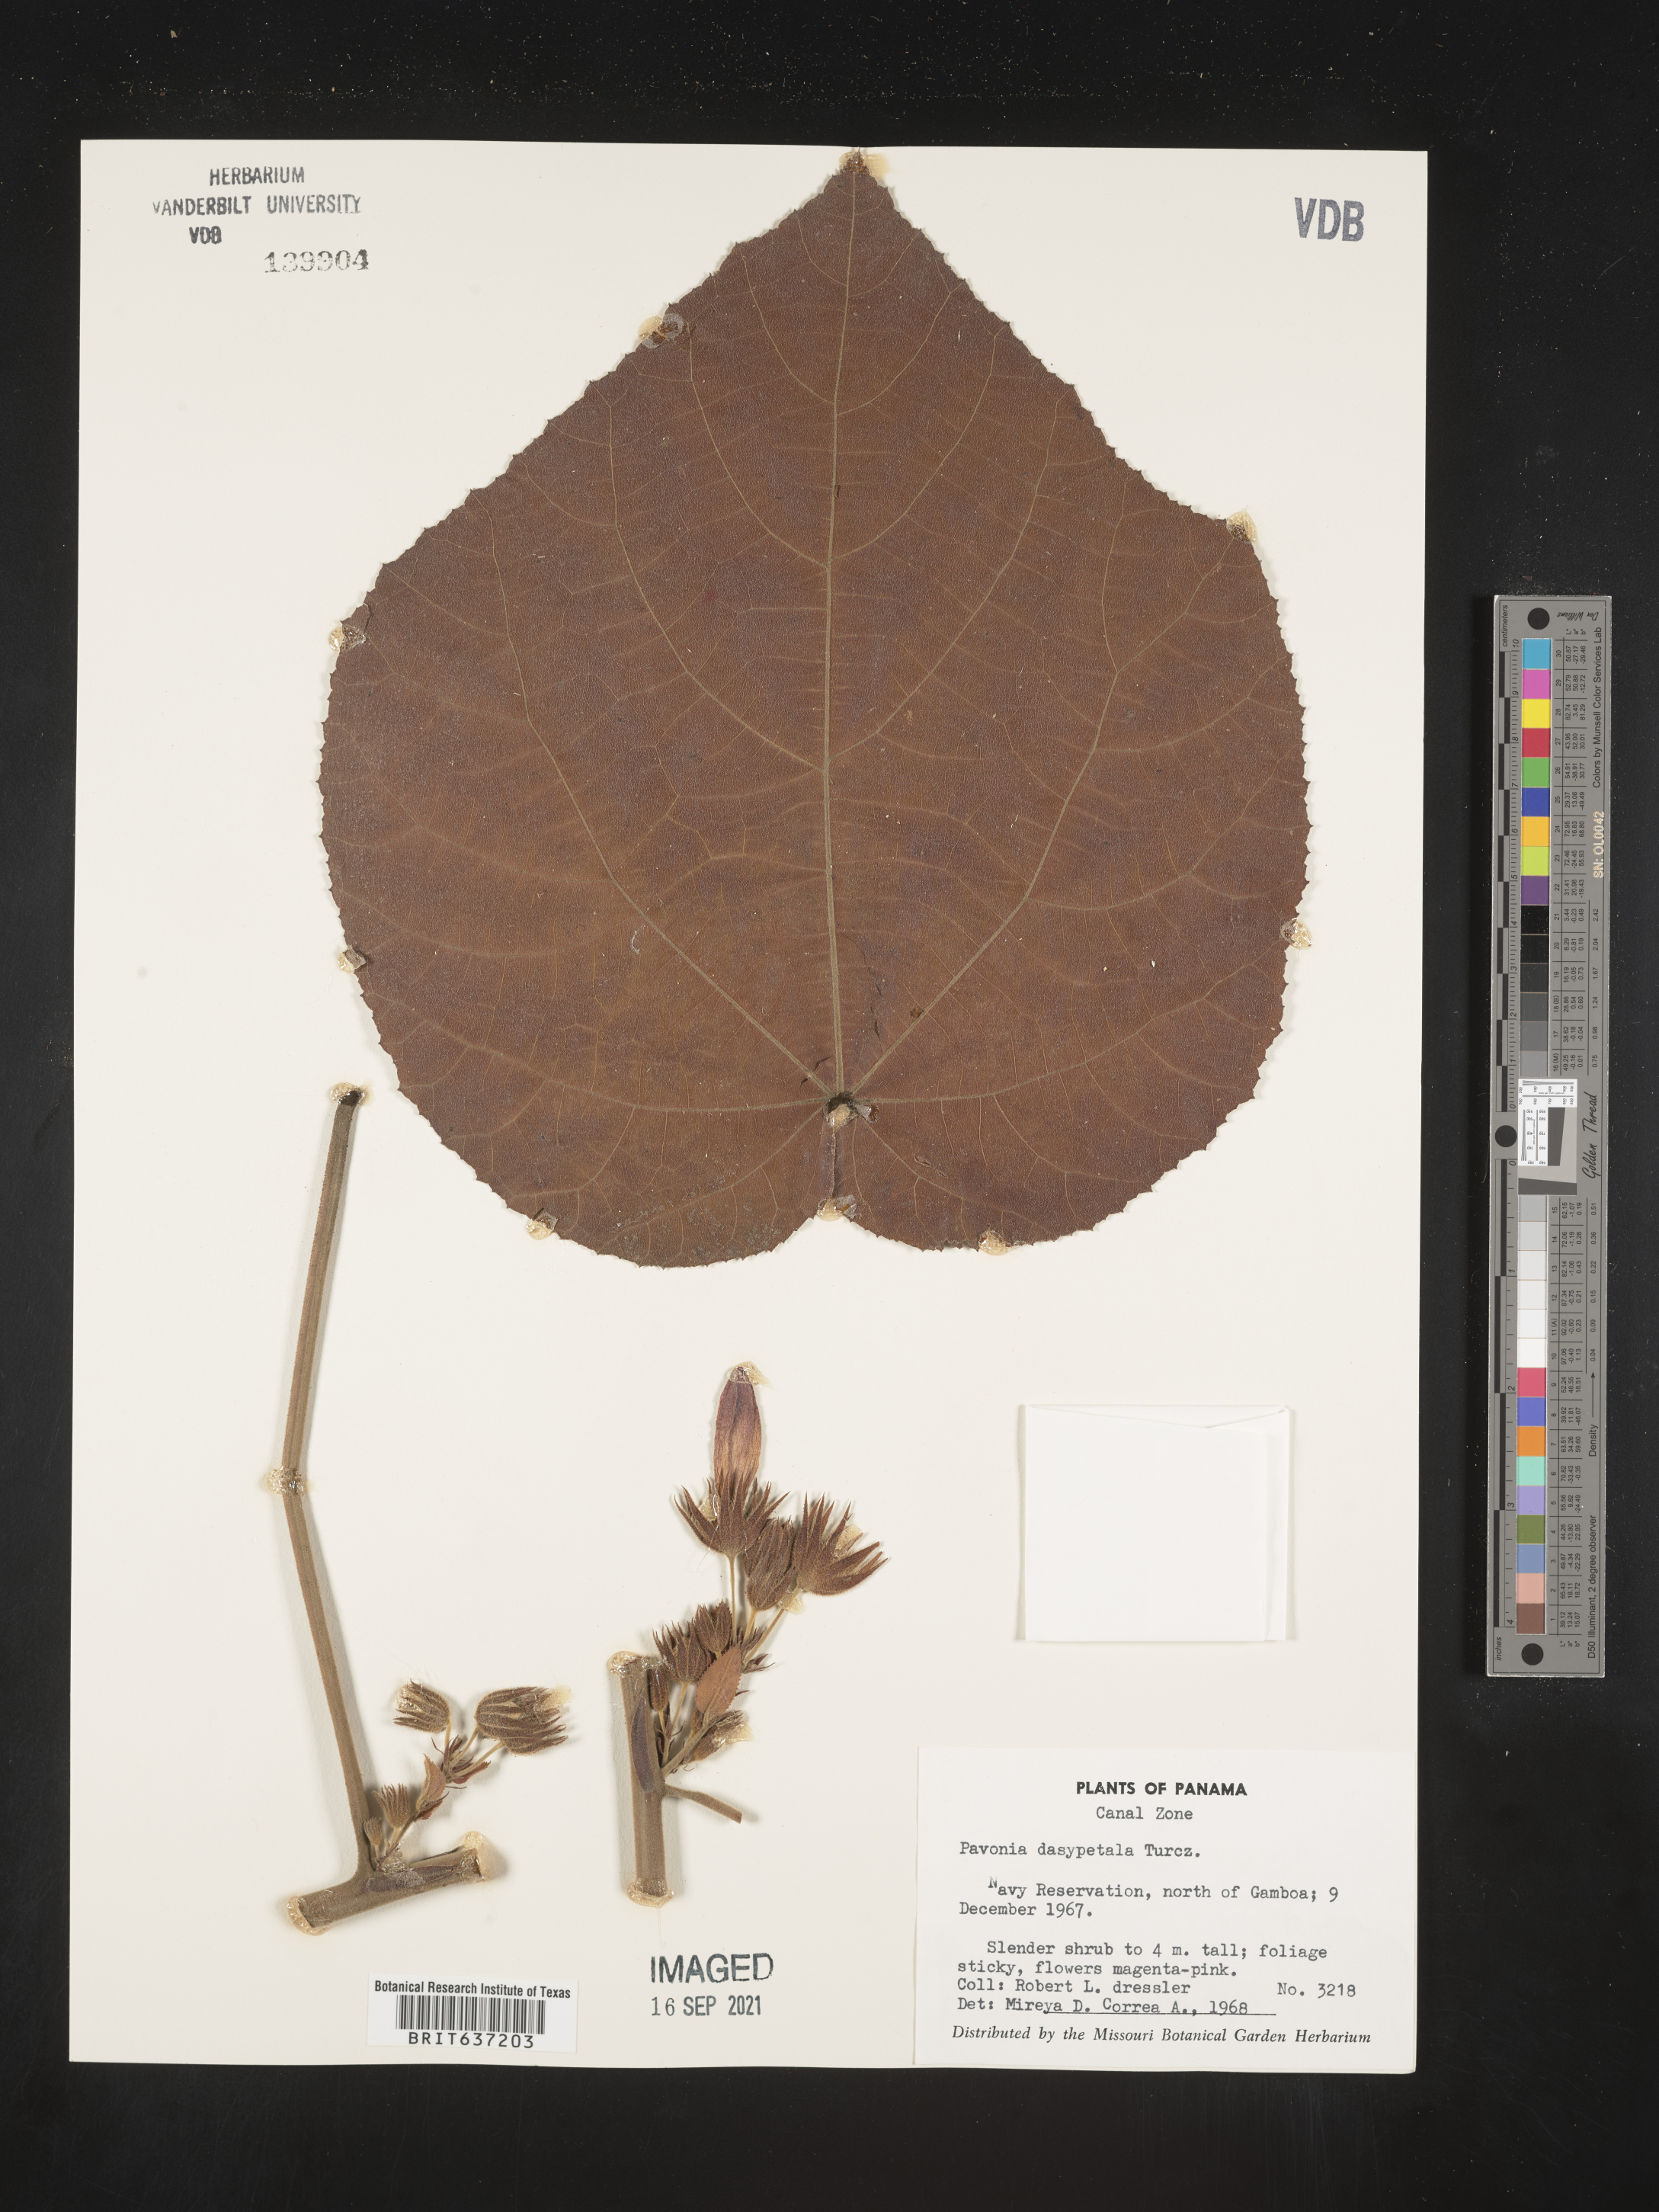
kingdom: Plantae
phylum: Tracheophyta
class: Magnoliopsida
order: Malvales
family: Malvaceae
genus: Pavonia
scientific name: Pavonia
